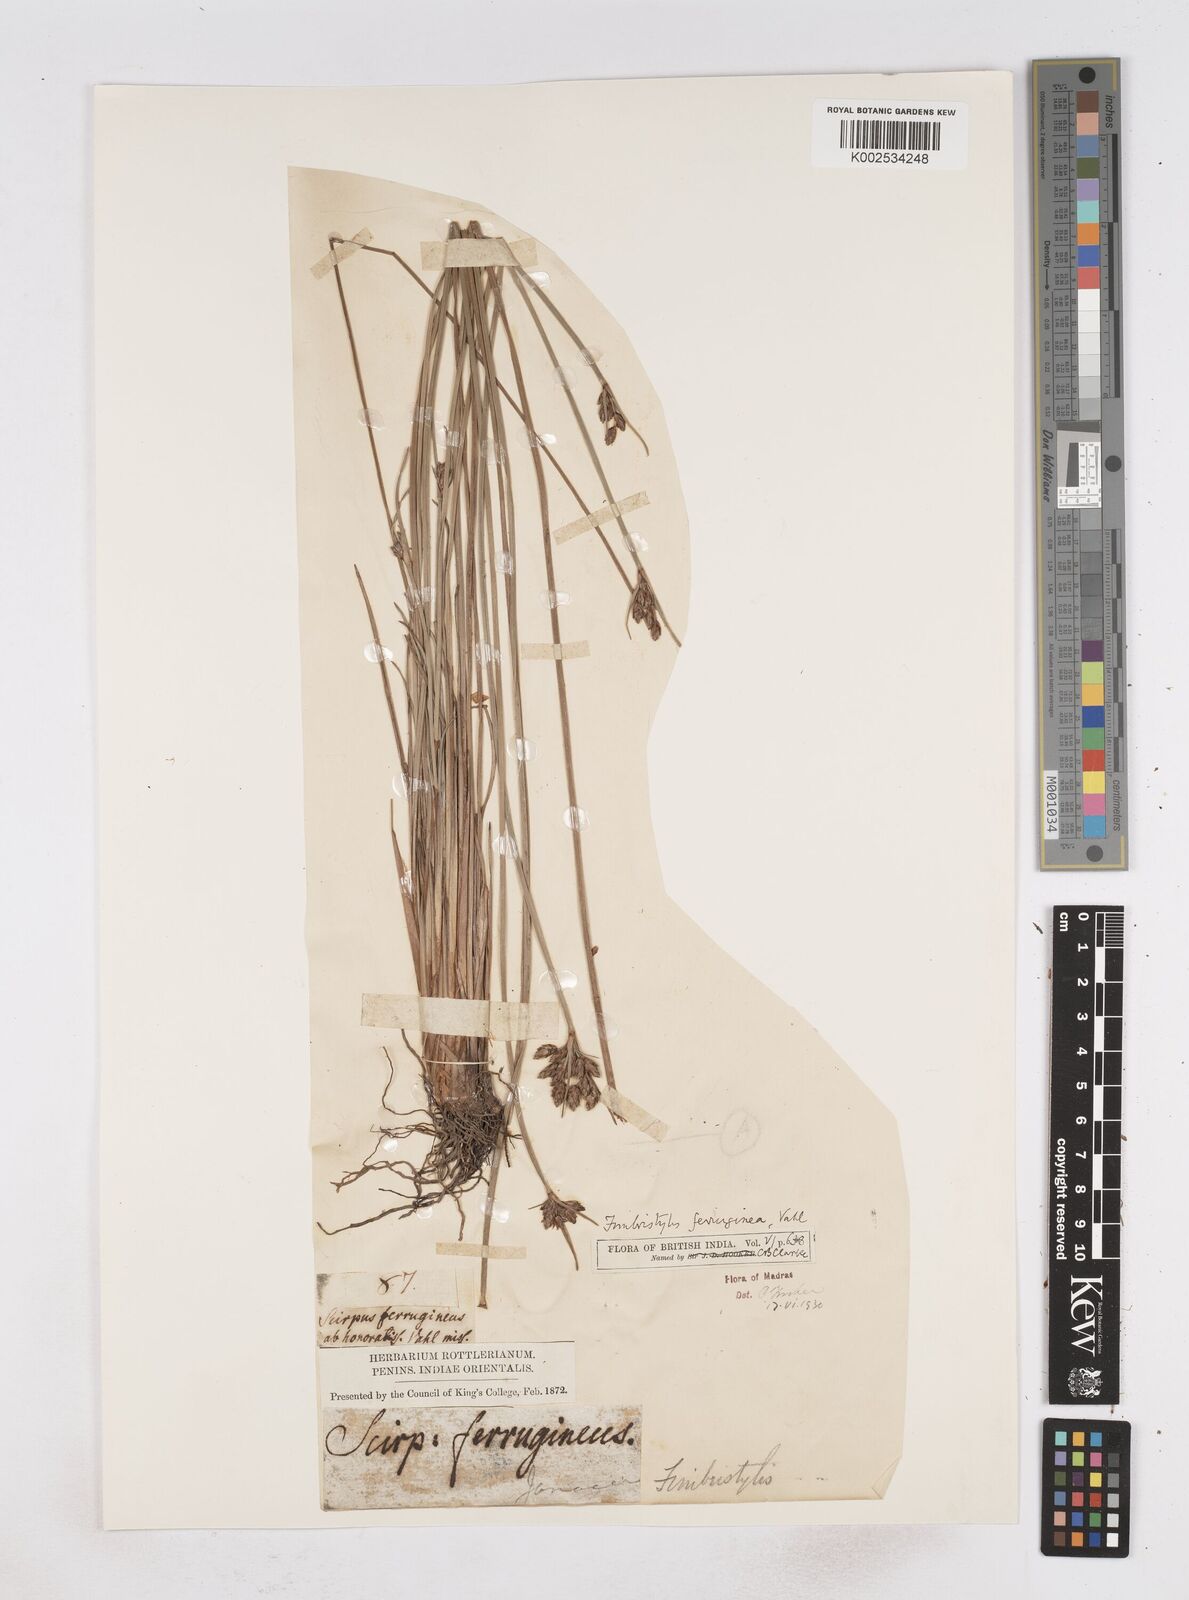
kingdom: Plantae
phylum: Tracheophyta
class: Liliopsida
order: Poales
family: Cyperaceae
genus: Fimbristylis
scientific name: Fimbristylis ferruginea
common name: West indian fimbry
